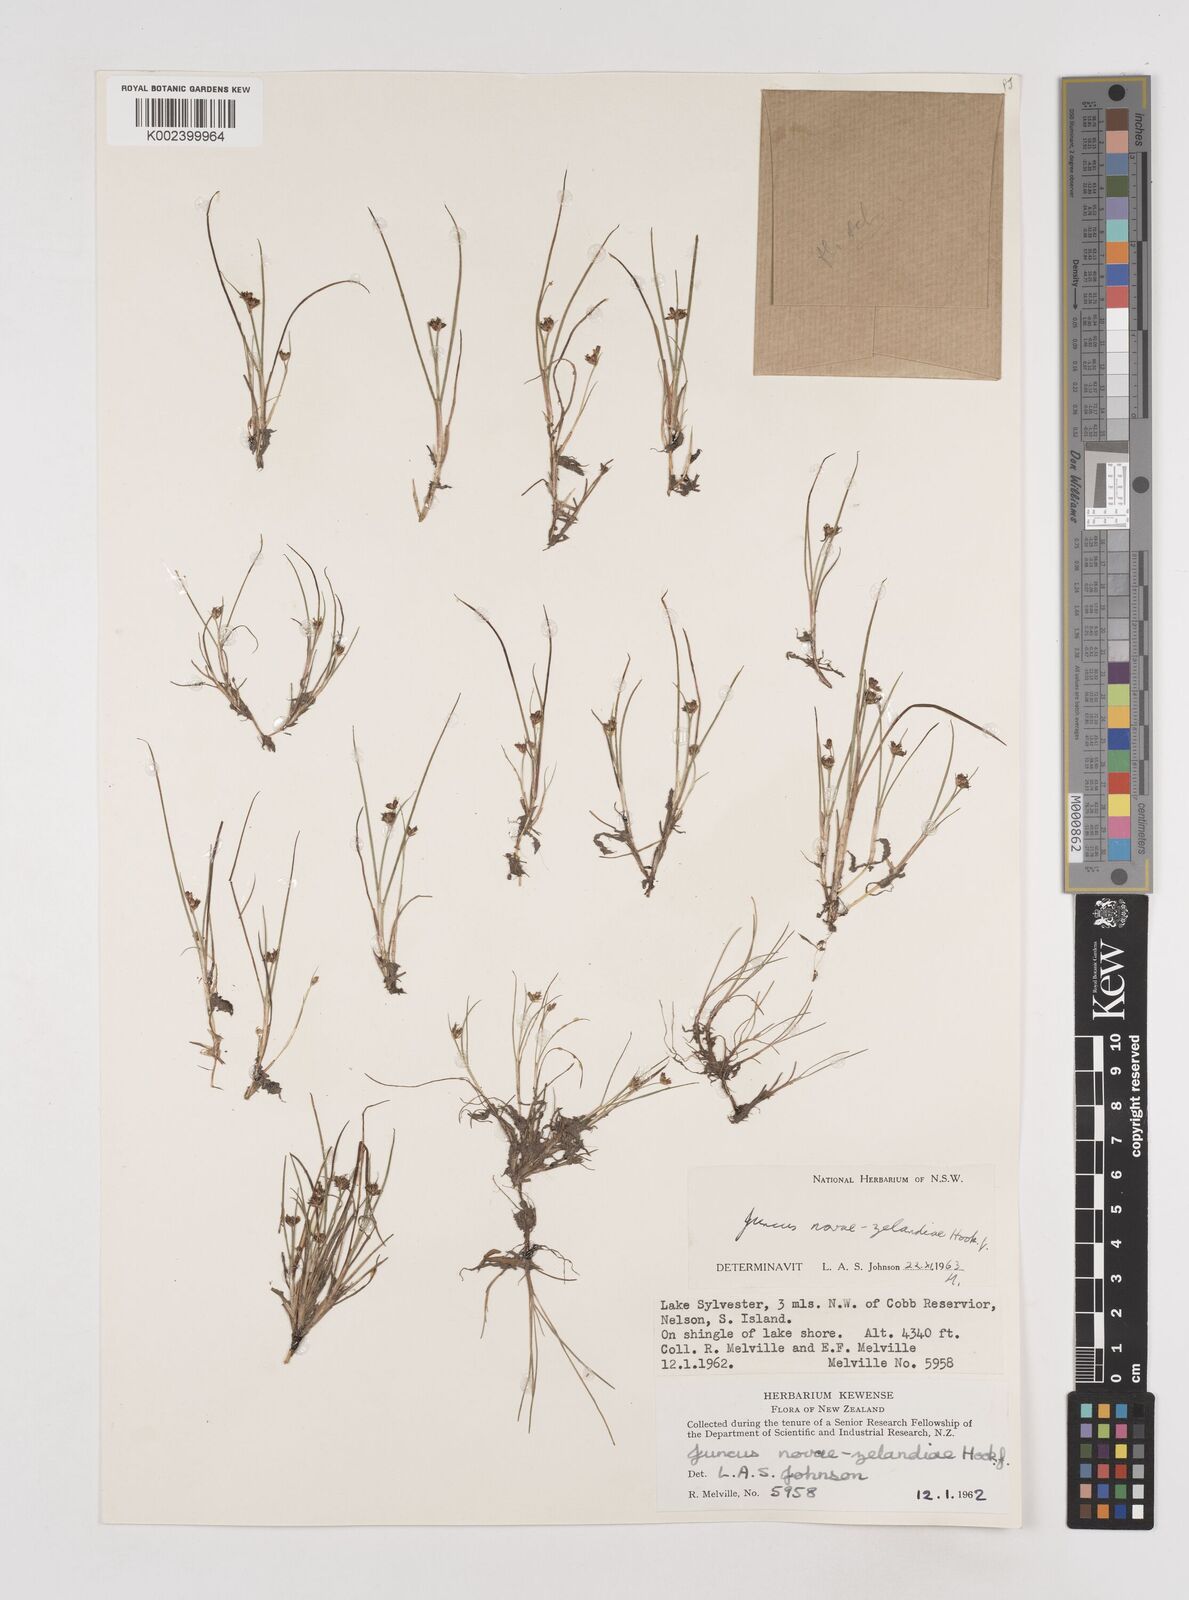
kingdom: Plantae
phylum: Tracheophyta
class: Liliopsida
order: Poales
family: Juncaceae
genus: Juncus
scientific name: Juncus novae-zelandiae
